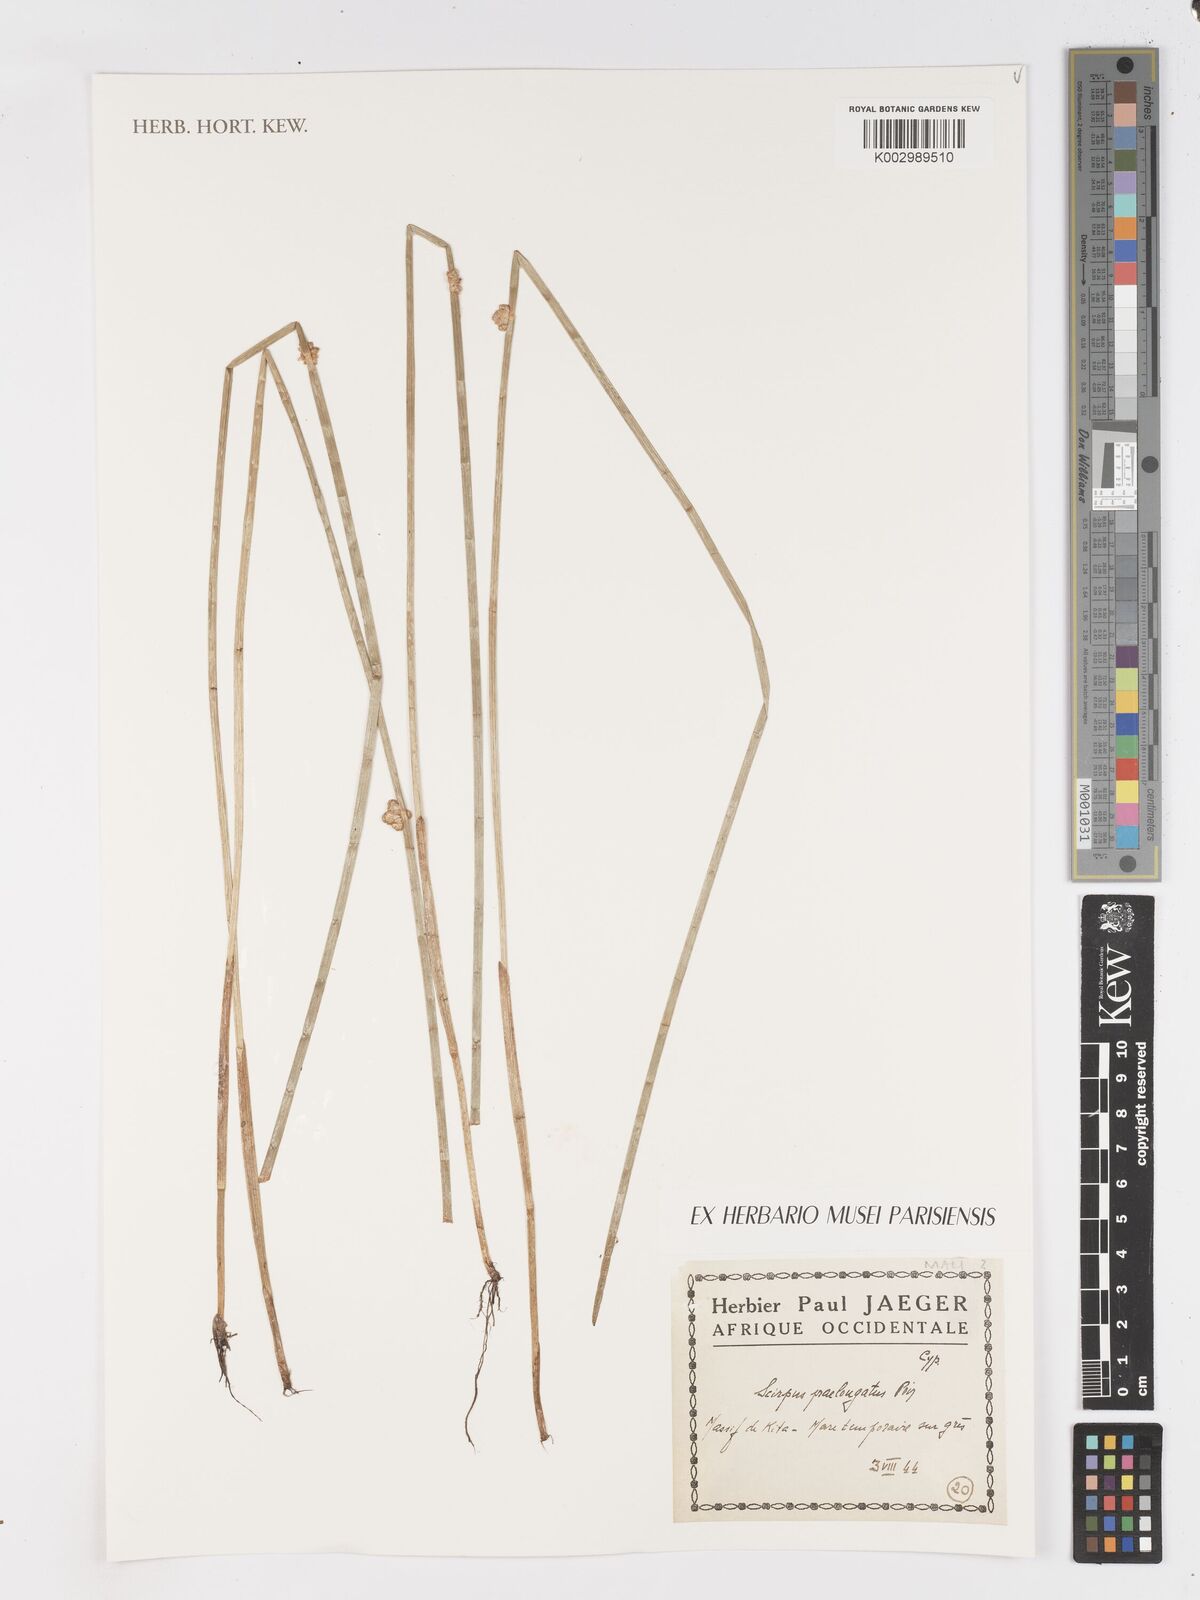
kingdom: Plantae
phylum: Tracheophyta
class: Liliopsida
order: Poales
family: Cyperaceae
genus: Schoenoplectiella
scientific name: Schoenoplectiella senegalensis
